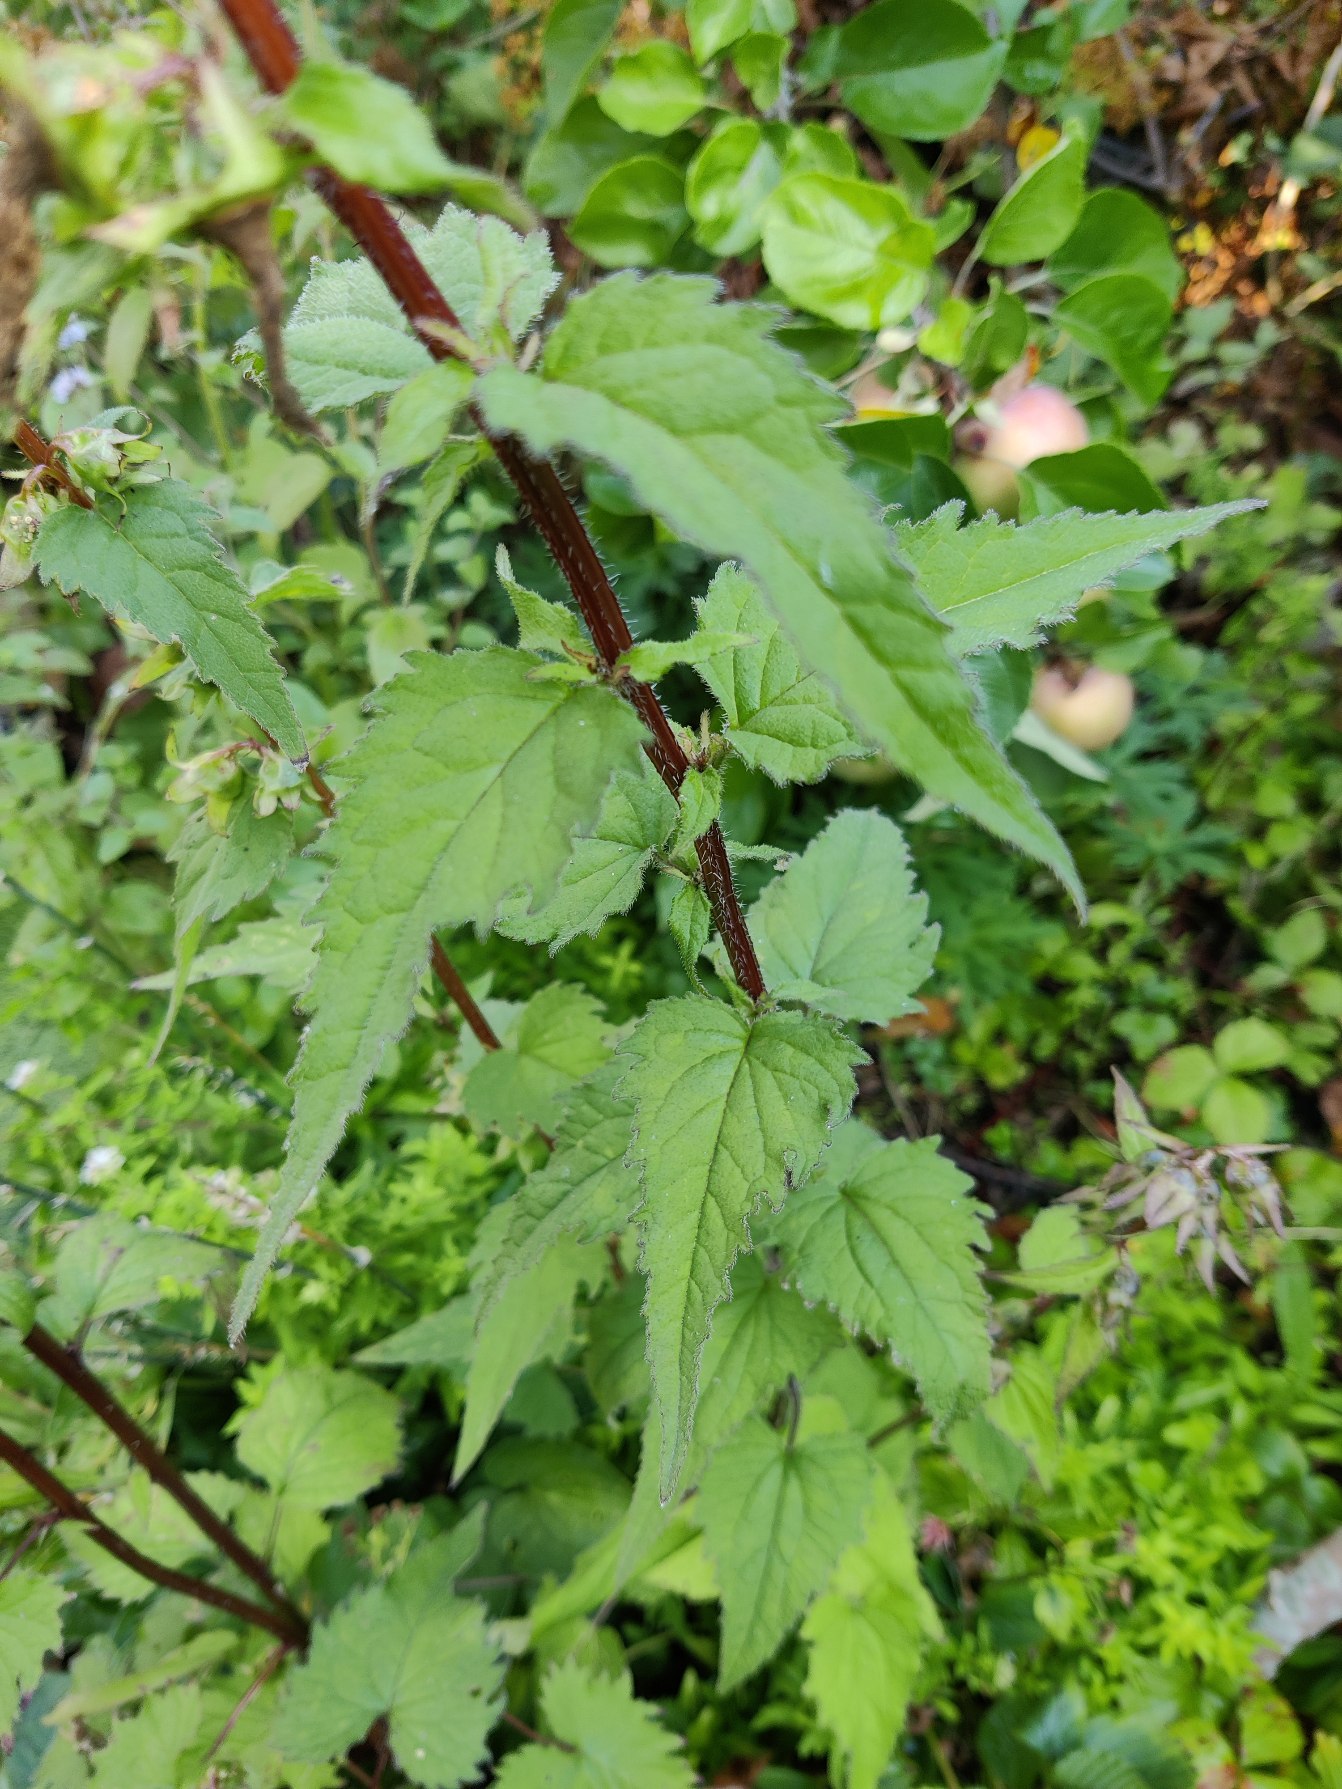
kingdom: Plantae
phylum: Tracheophyta
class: Magnoliopsida
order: Asterales
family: Campanulaceae
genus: Campanula
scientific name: Campanula trachelium
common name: Nælde-klokke
